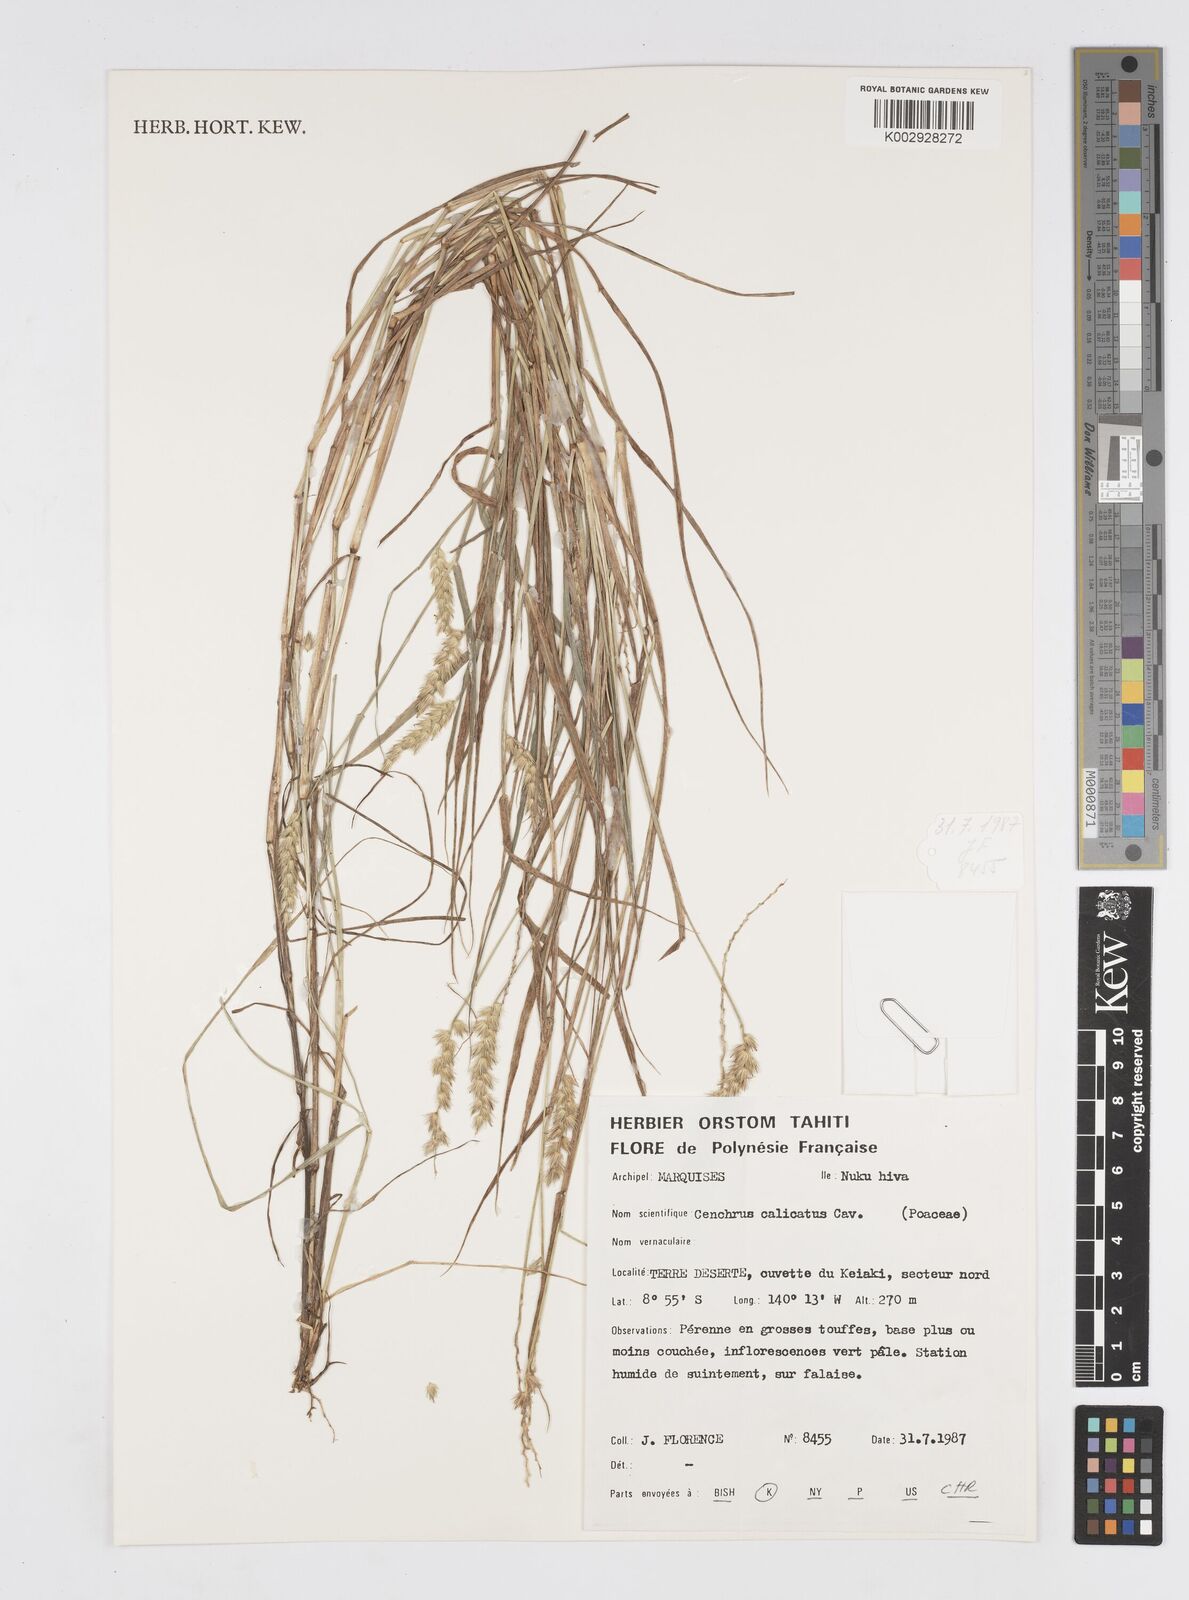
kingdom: Plantae
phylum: Tracheophyta
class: Liliopsida
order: Poales
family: Poaceae
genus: Cenchrus
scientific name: Cenchrus caliculatus
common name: Large bur grass
